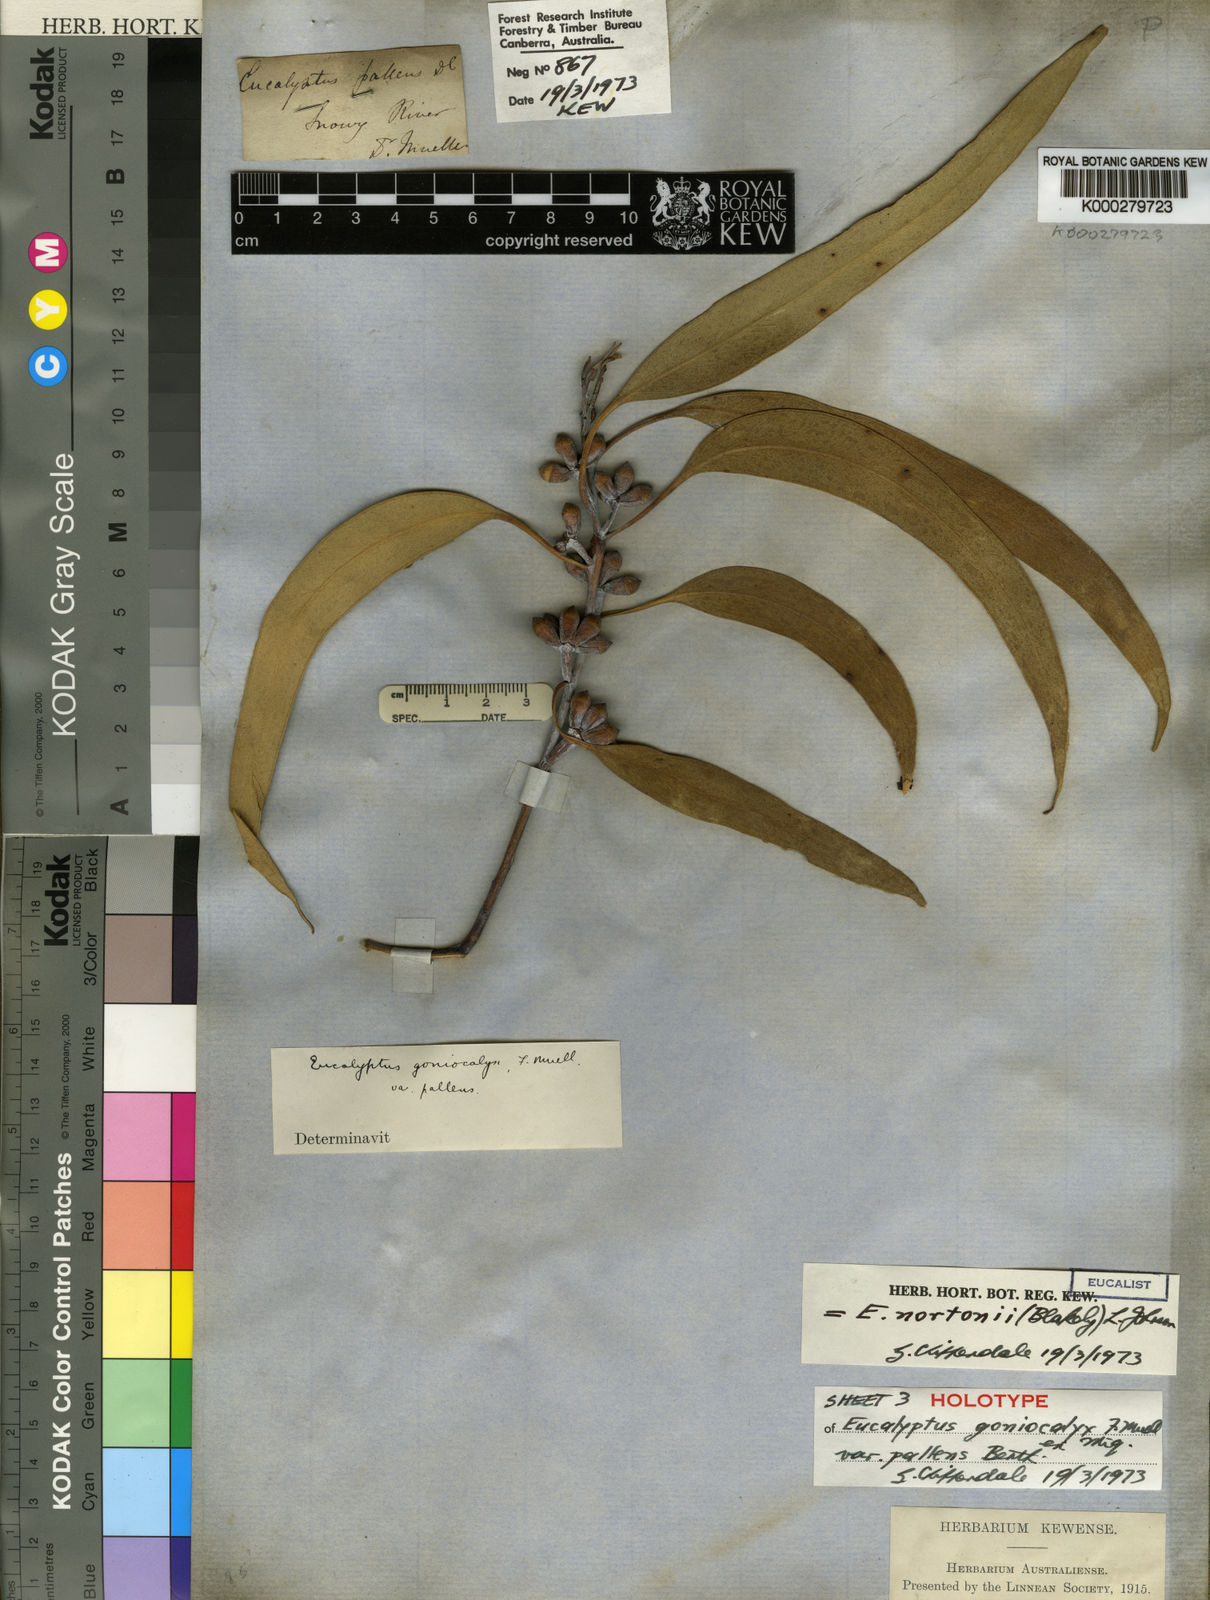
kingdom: Plantae
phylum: Tracheophyta
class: Magnoliopsida
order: Myrtales
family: Myrtaceae
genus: Eucalyptus
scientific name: Eucalyptus nortonii
